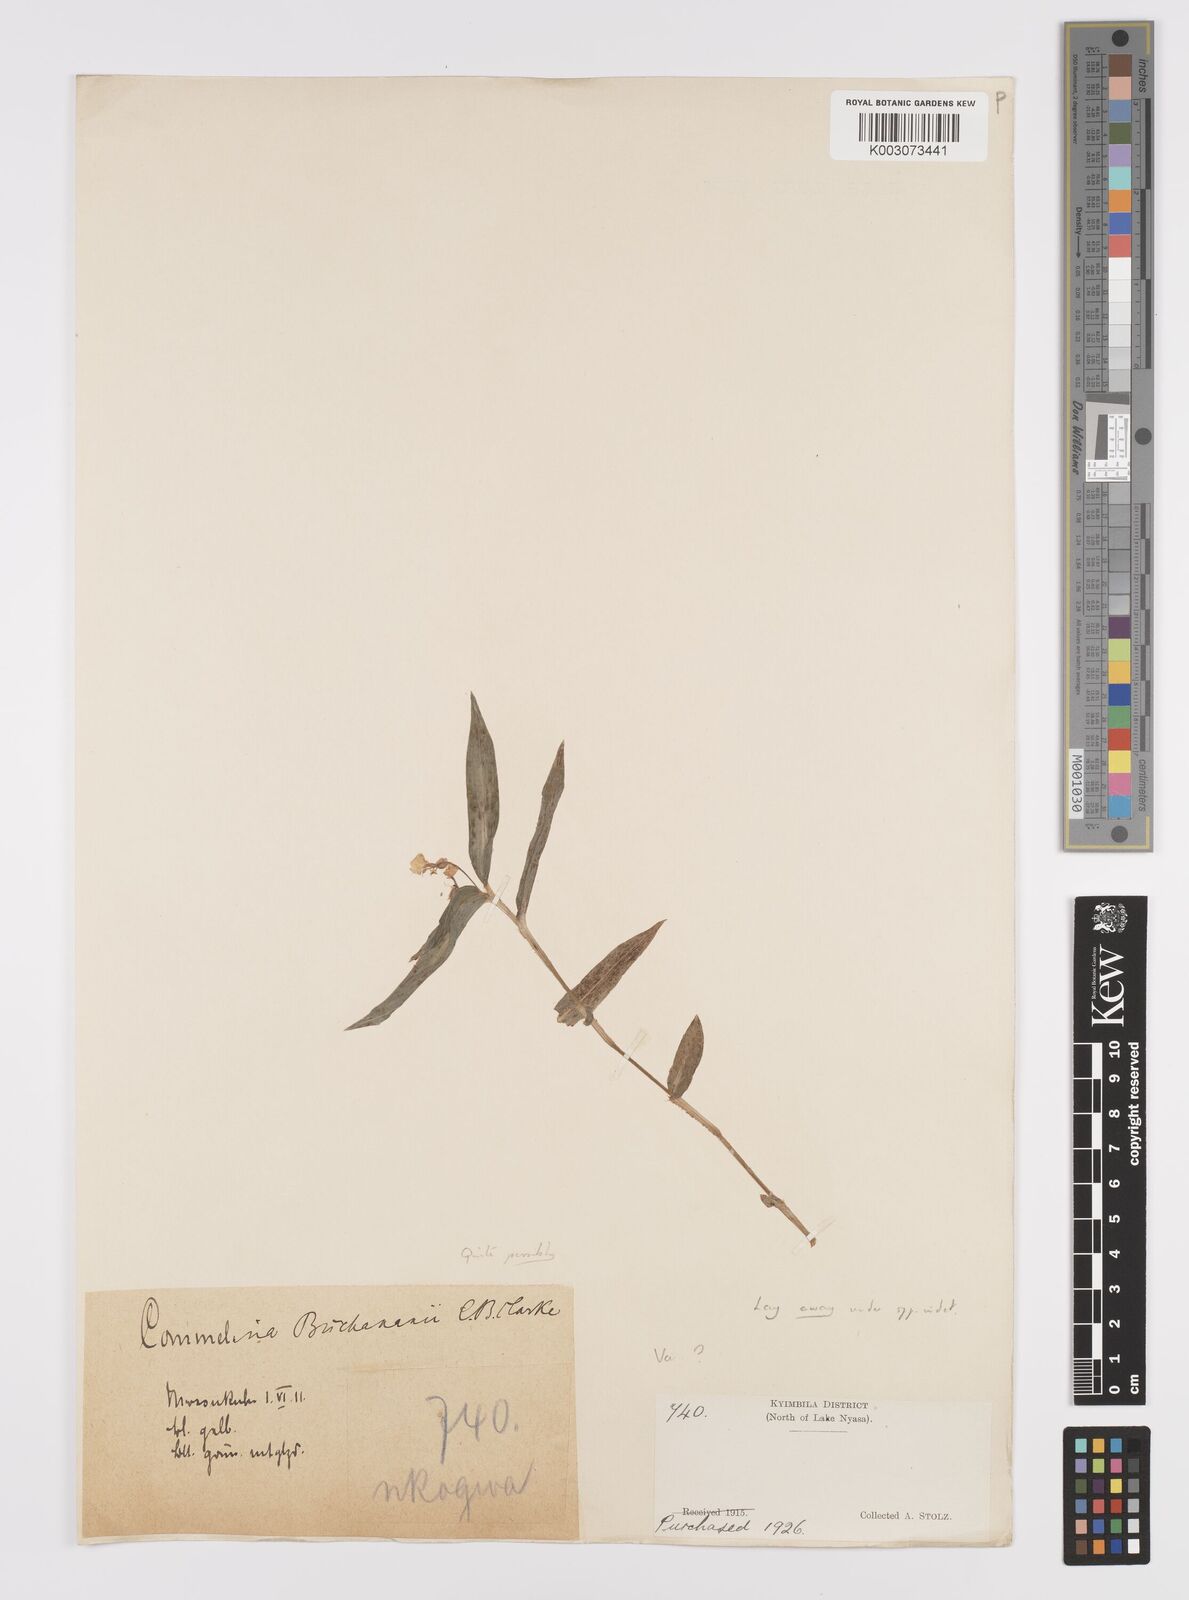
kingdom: Plantae
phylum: Tracheophyta
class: Liliopsida
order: Commelinales
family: Commelinaceae
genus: Commelina
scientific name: Commelina africana
